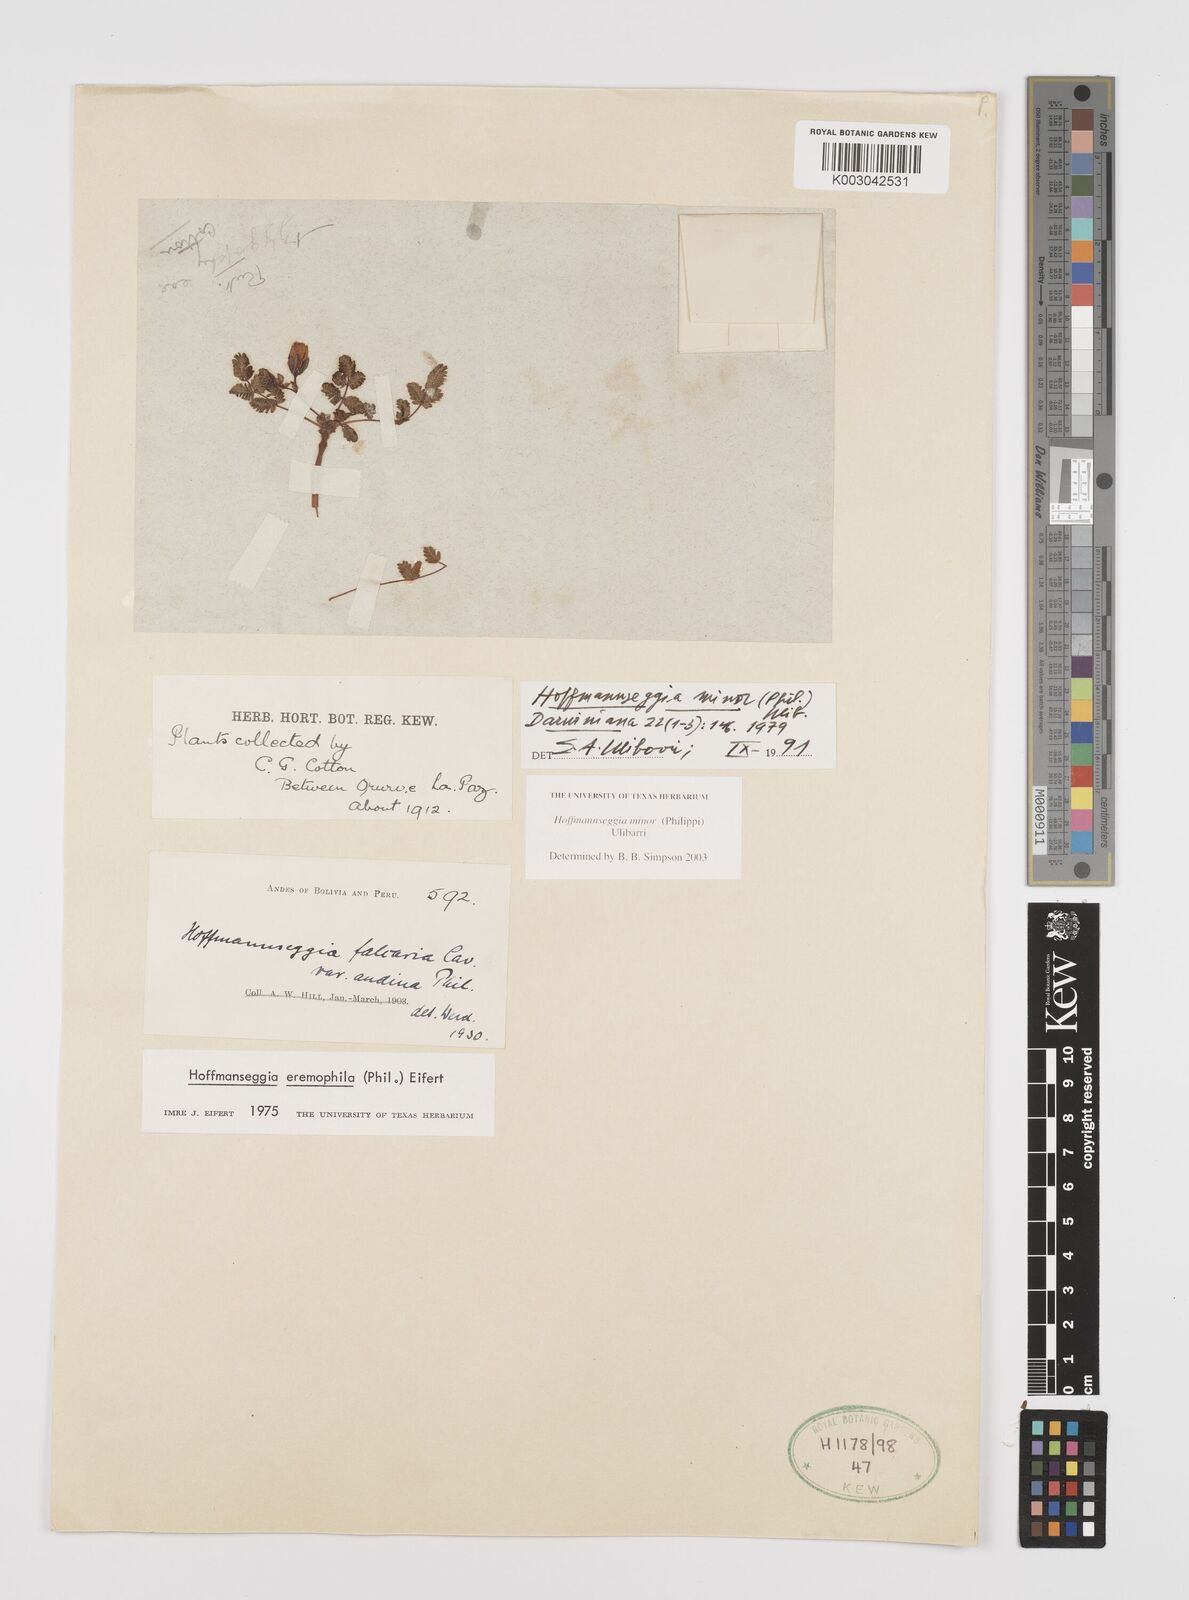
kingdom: Plantae
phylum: Tracheophyta
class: Magnoliopsida
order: Fabales
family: Fabaceae
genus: Hoffmannseggia
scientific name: Hoffmannseggia minor
